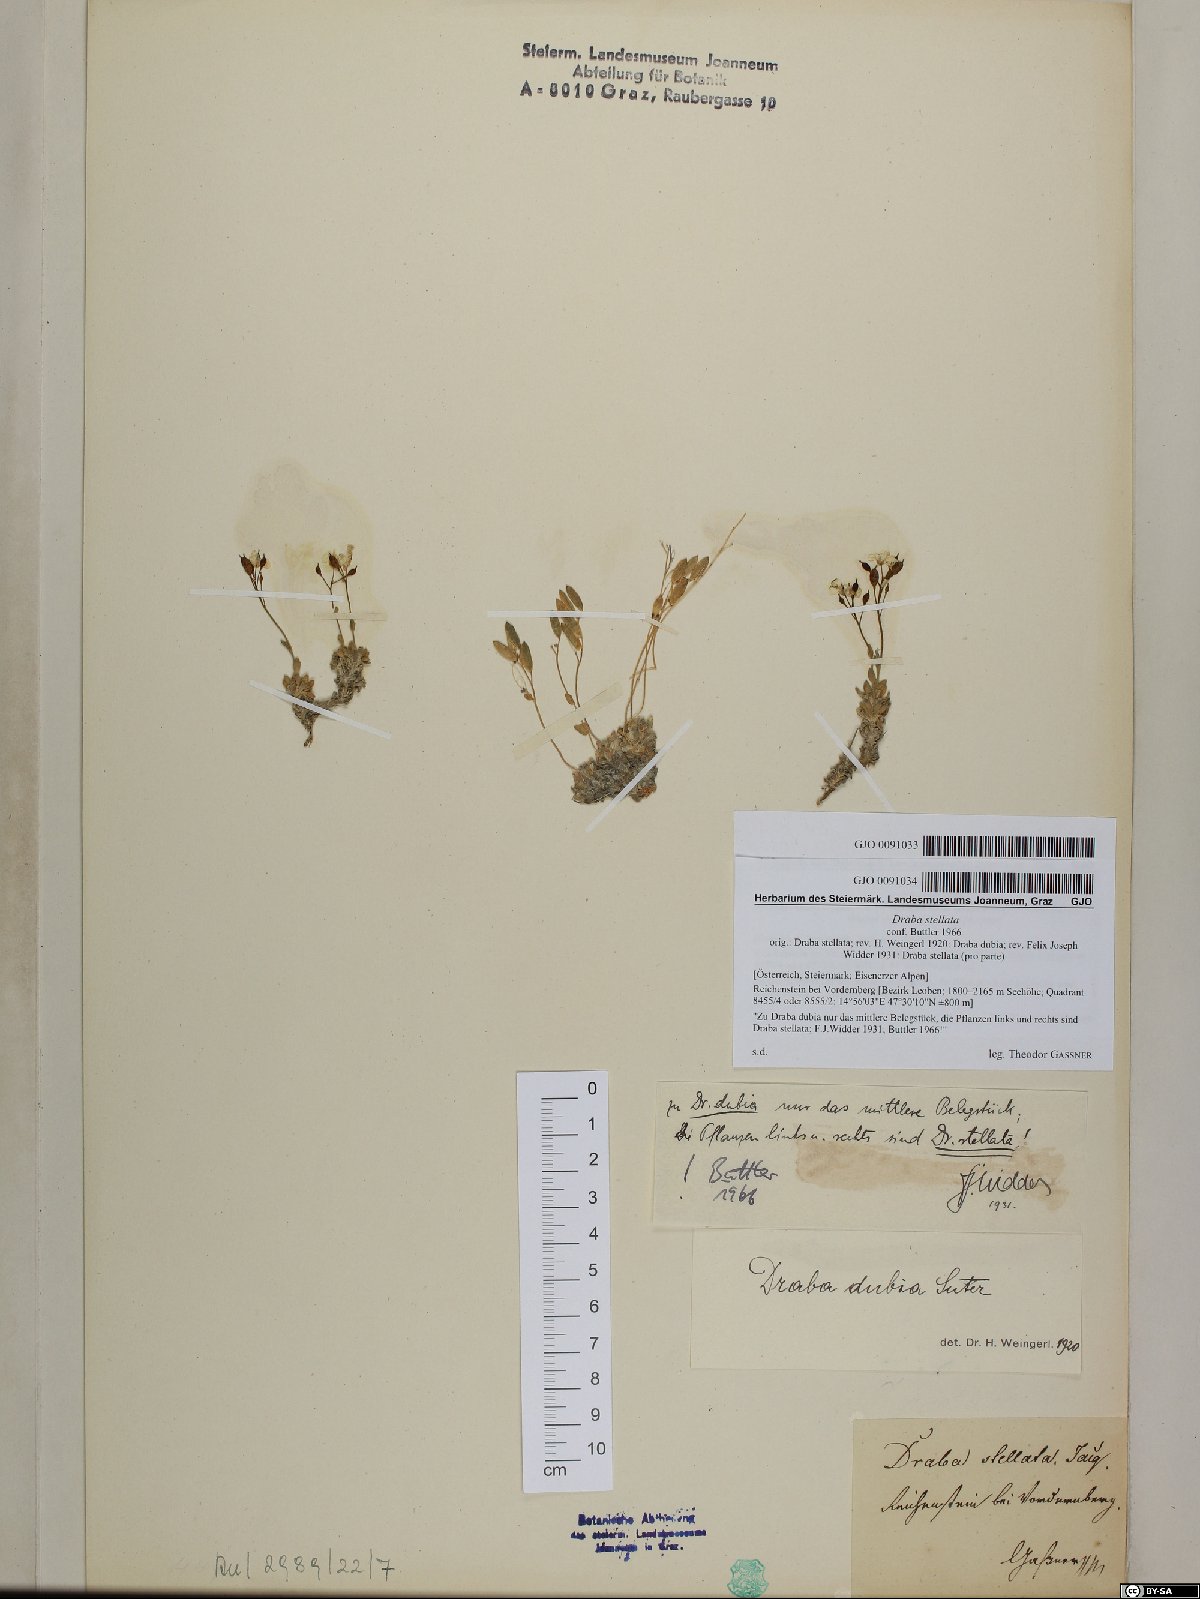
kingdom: Plantae
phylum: Tracheophyta
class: Magnoliopsida
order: Brassicales
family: Brassicaceae
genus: Draba
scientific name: Draba stellata
